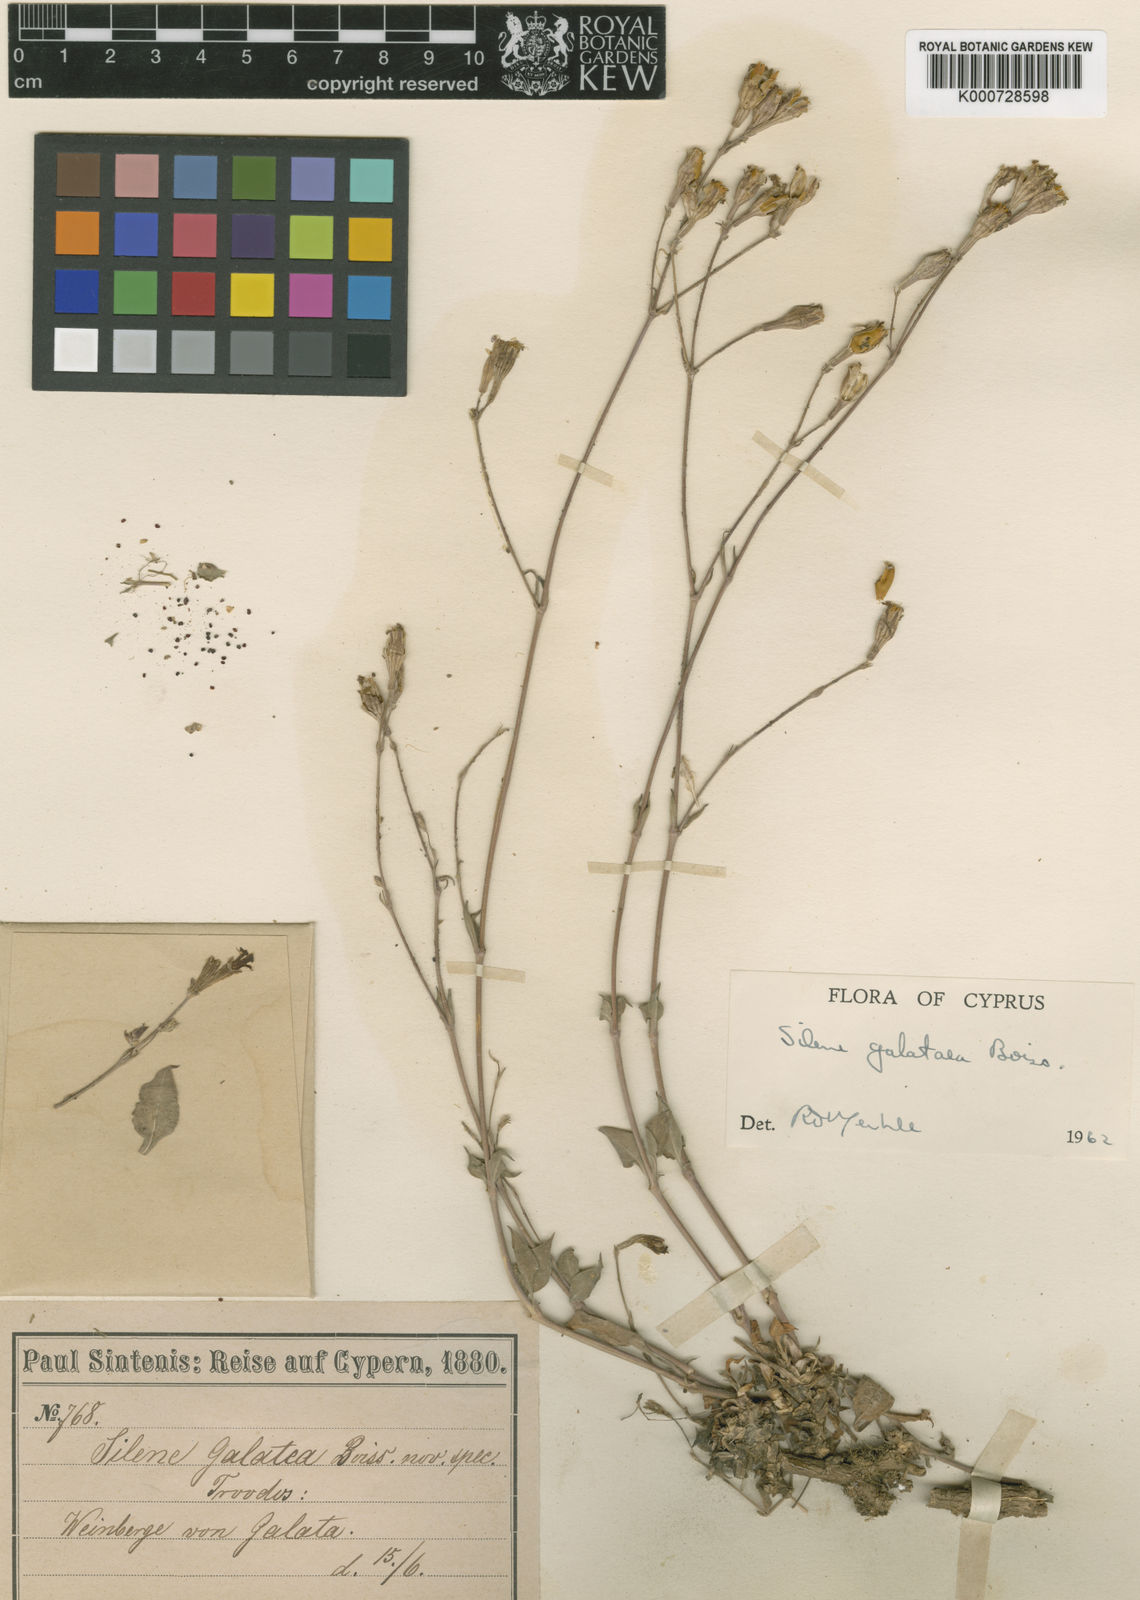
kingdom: Plantae
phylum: Tracheophyta
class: Magnoliopsida
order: Caryophyllales
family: Caryophyllaceae
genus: Silene
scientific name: Silene galataea
